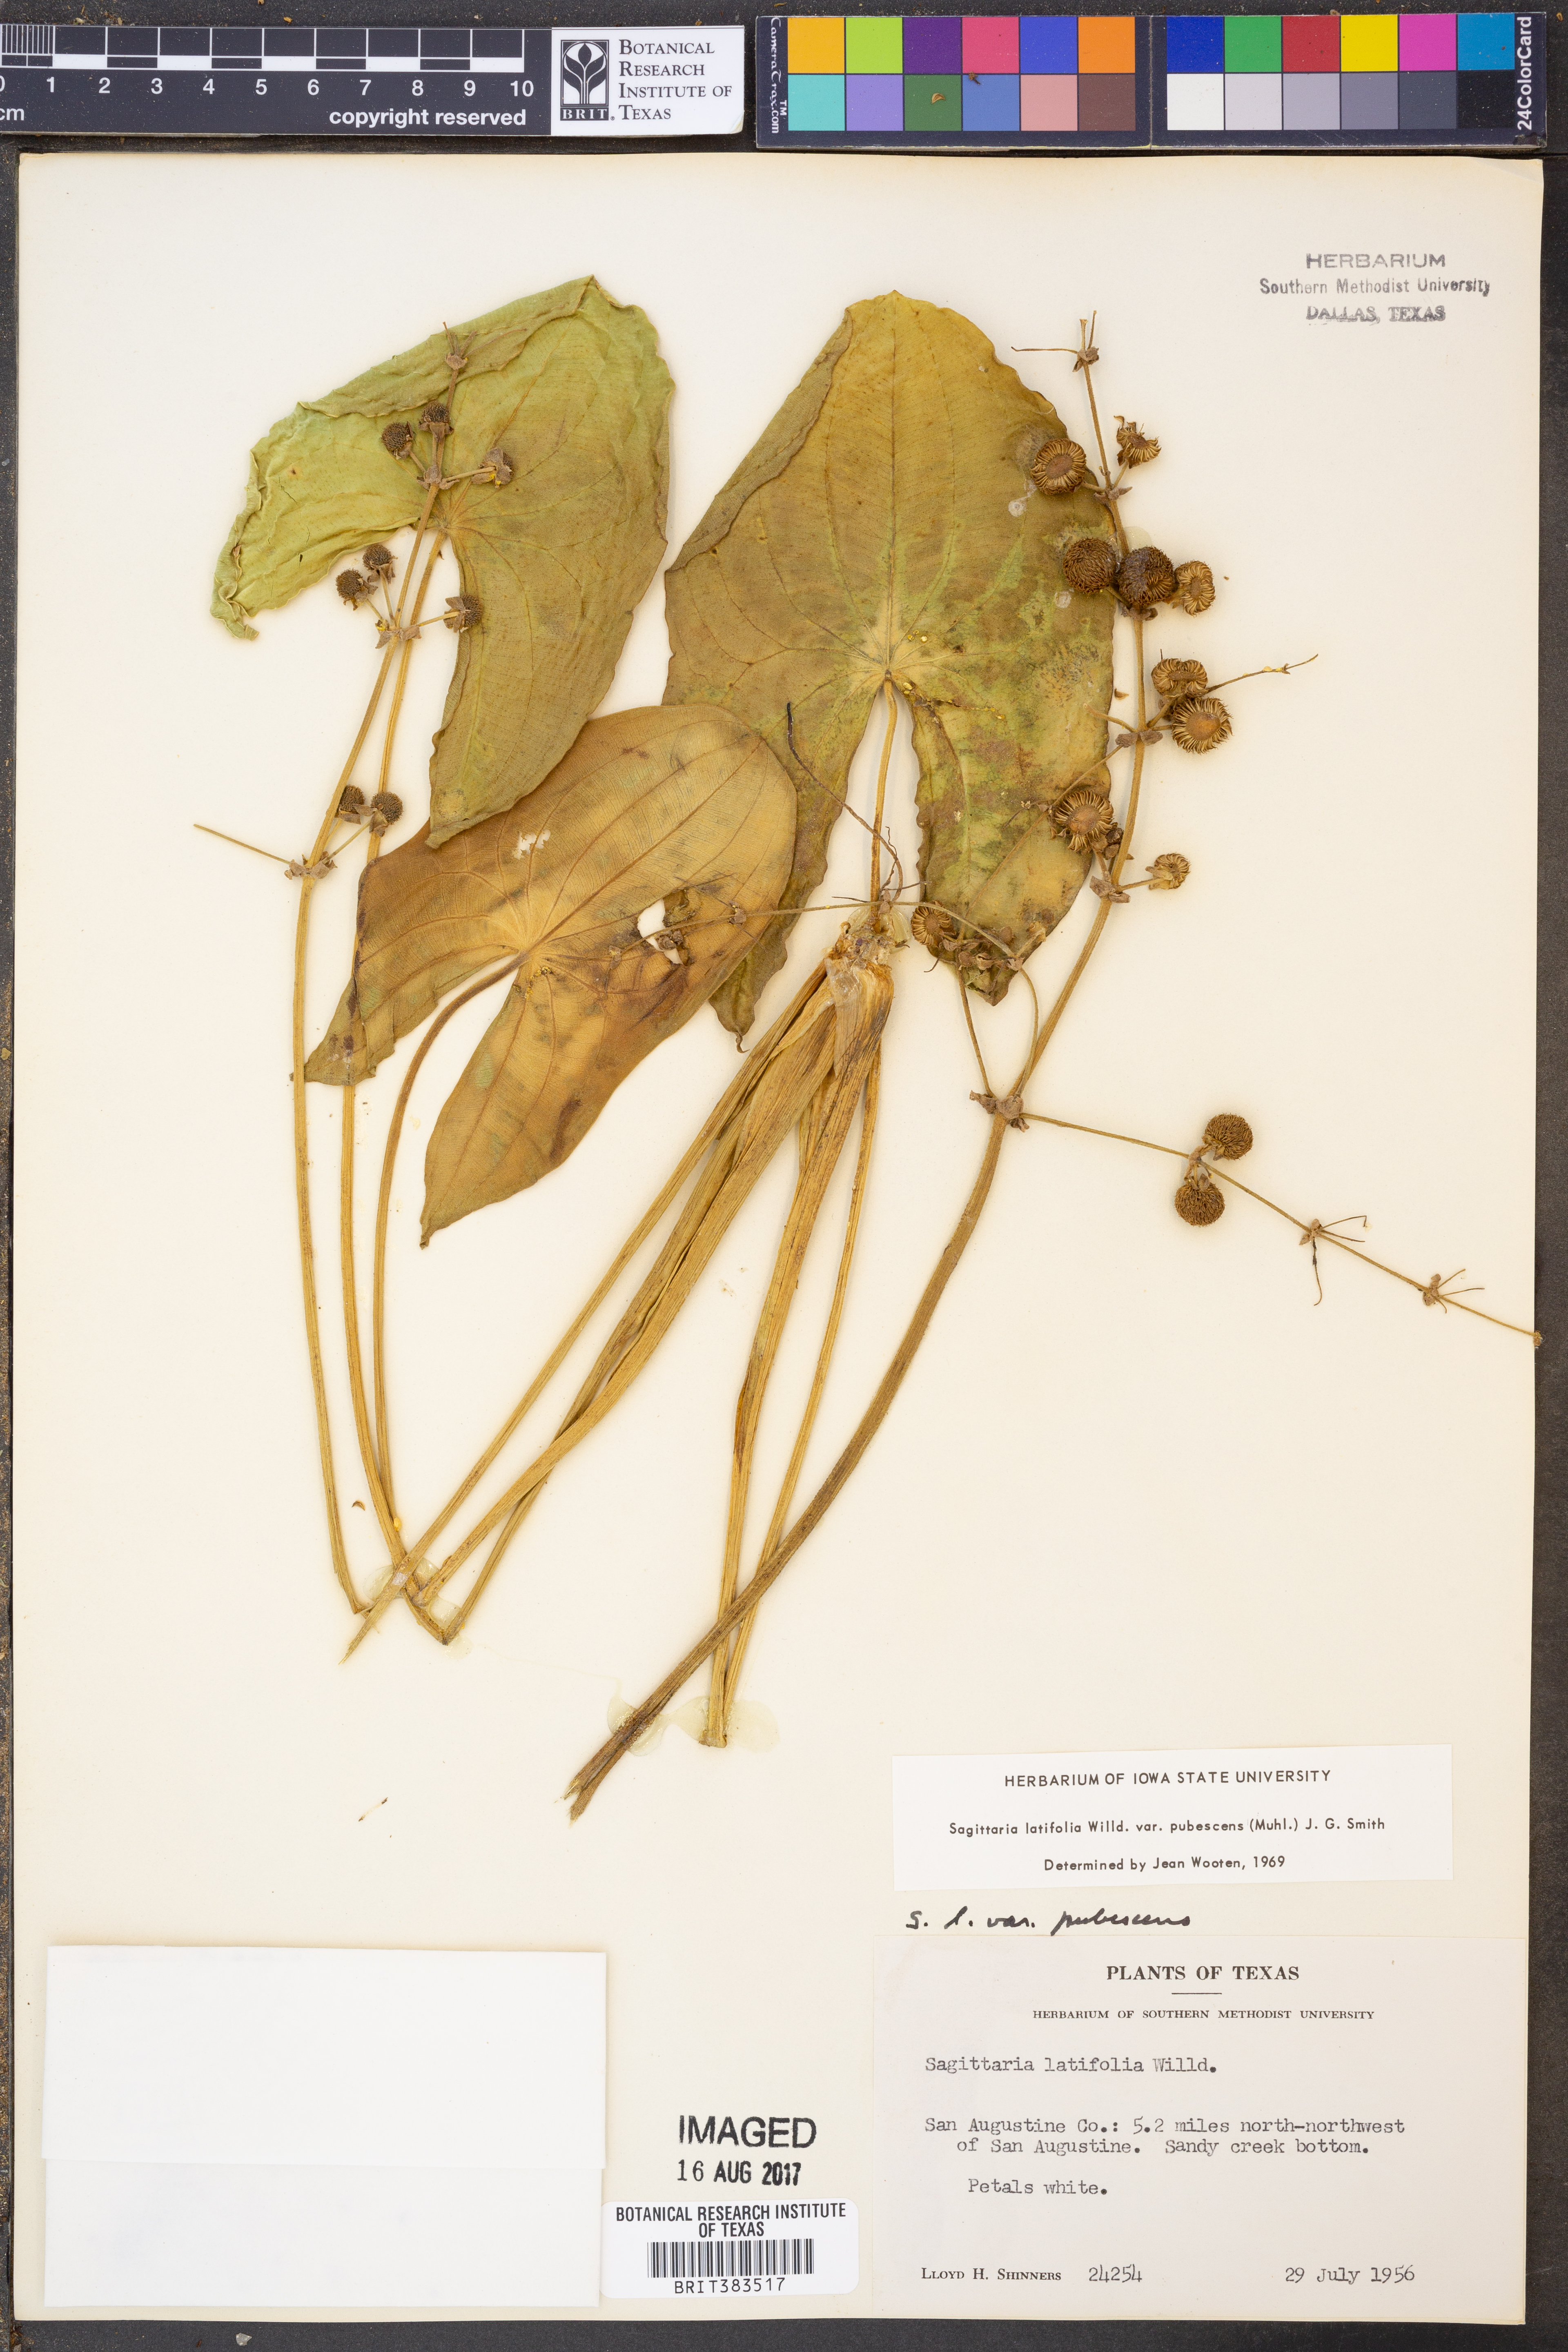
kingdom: Plantae
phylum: Tracheophyta
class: Liliopsida
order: Alismatales
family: Alismataceae
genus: Sagittaria
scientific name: Sagittaria latifolia
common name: Duck-potato
